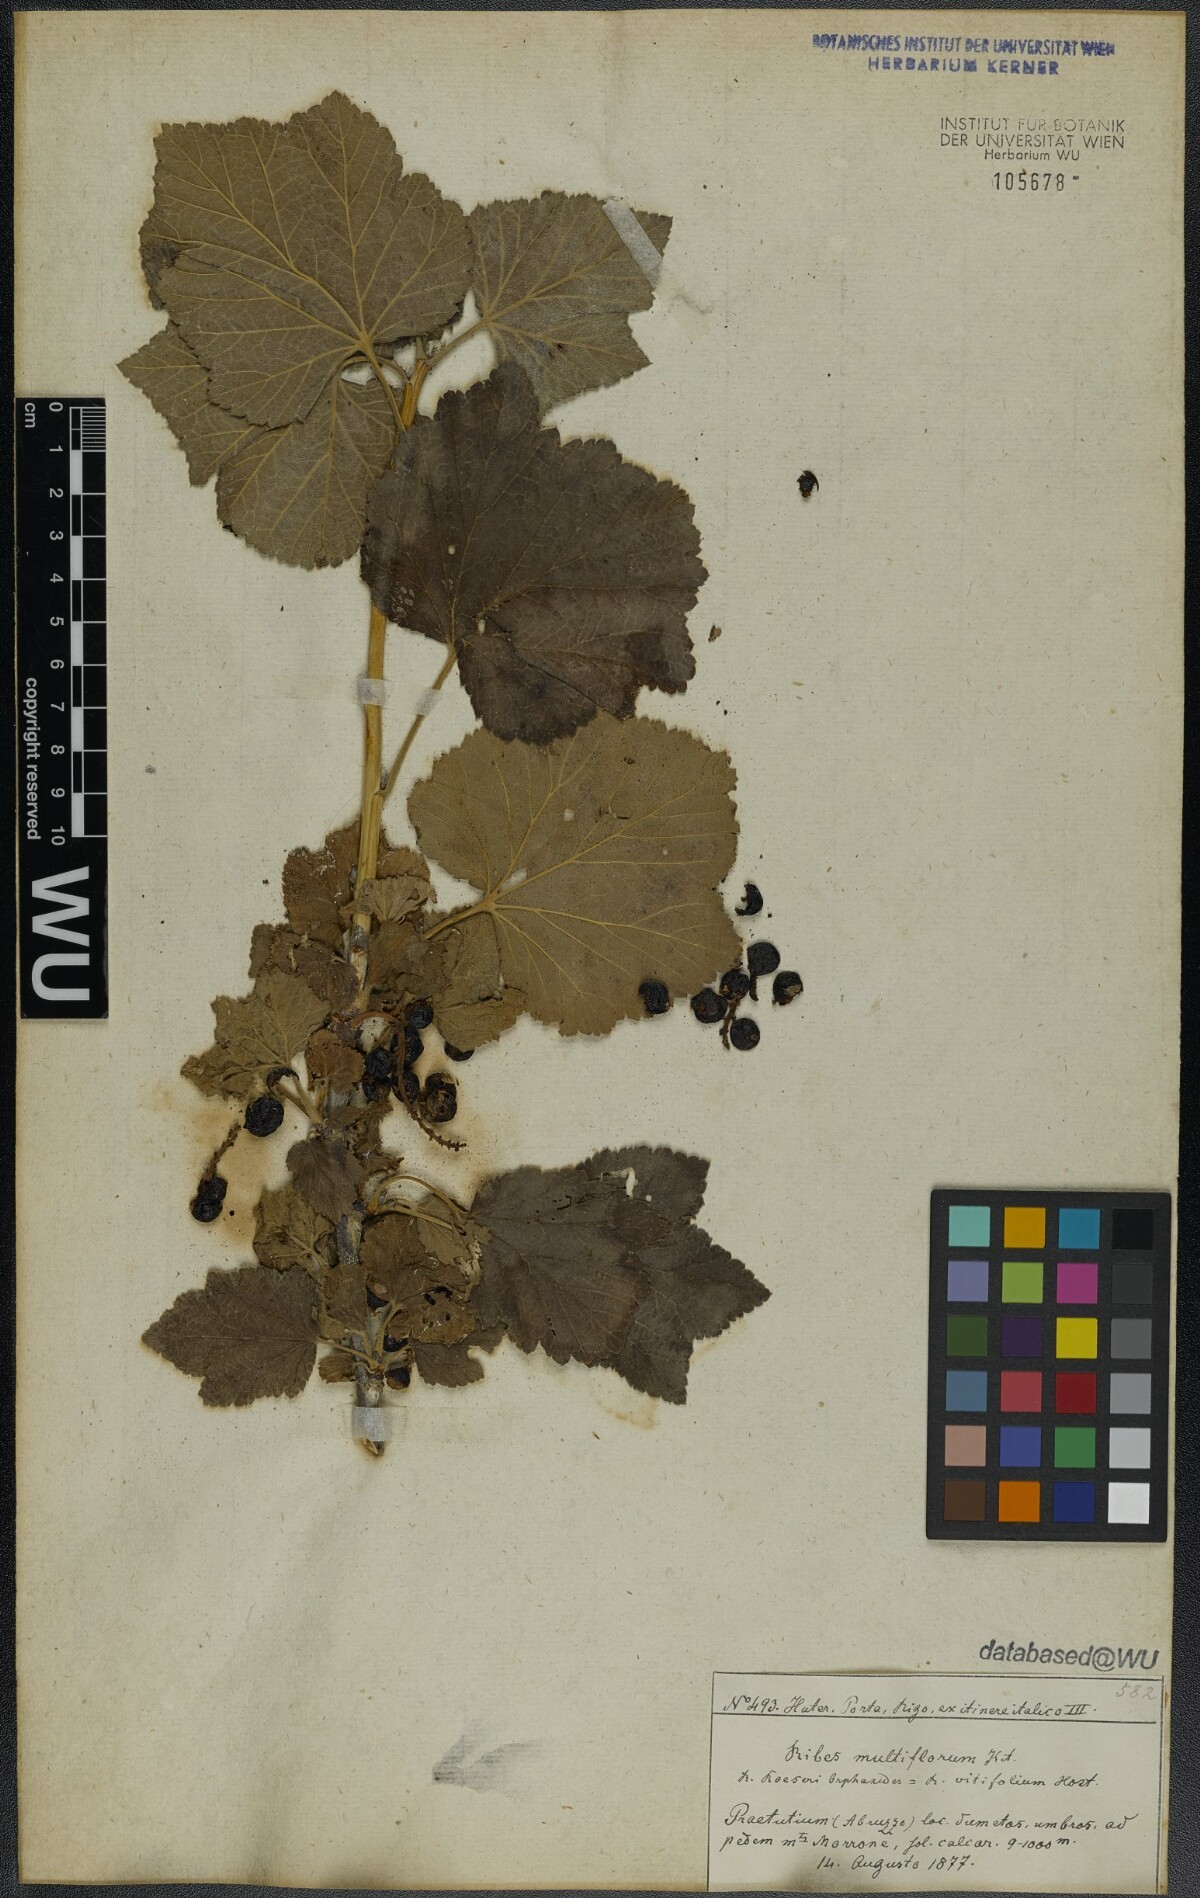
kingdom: Plantae
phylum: Tracheophyta
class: Magnoliopsida
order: Saxifragales
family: Grossulariaceae
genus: Ribes
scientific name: Ribes multiflorum
